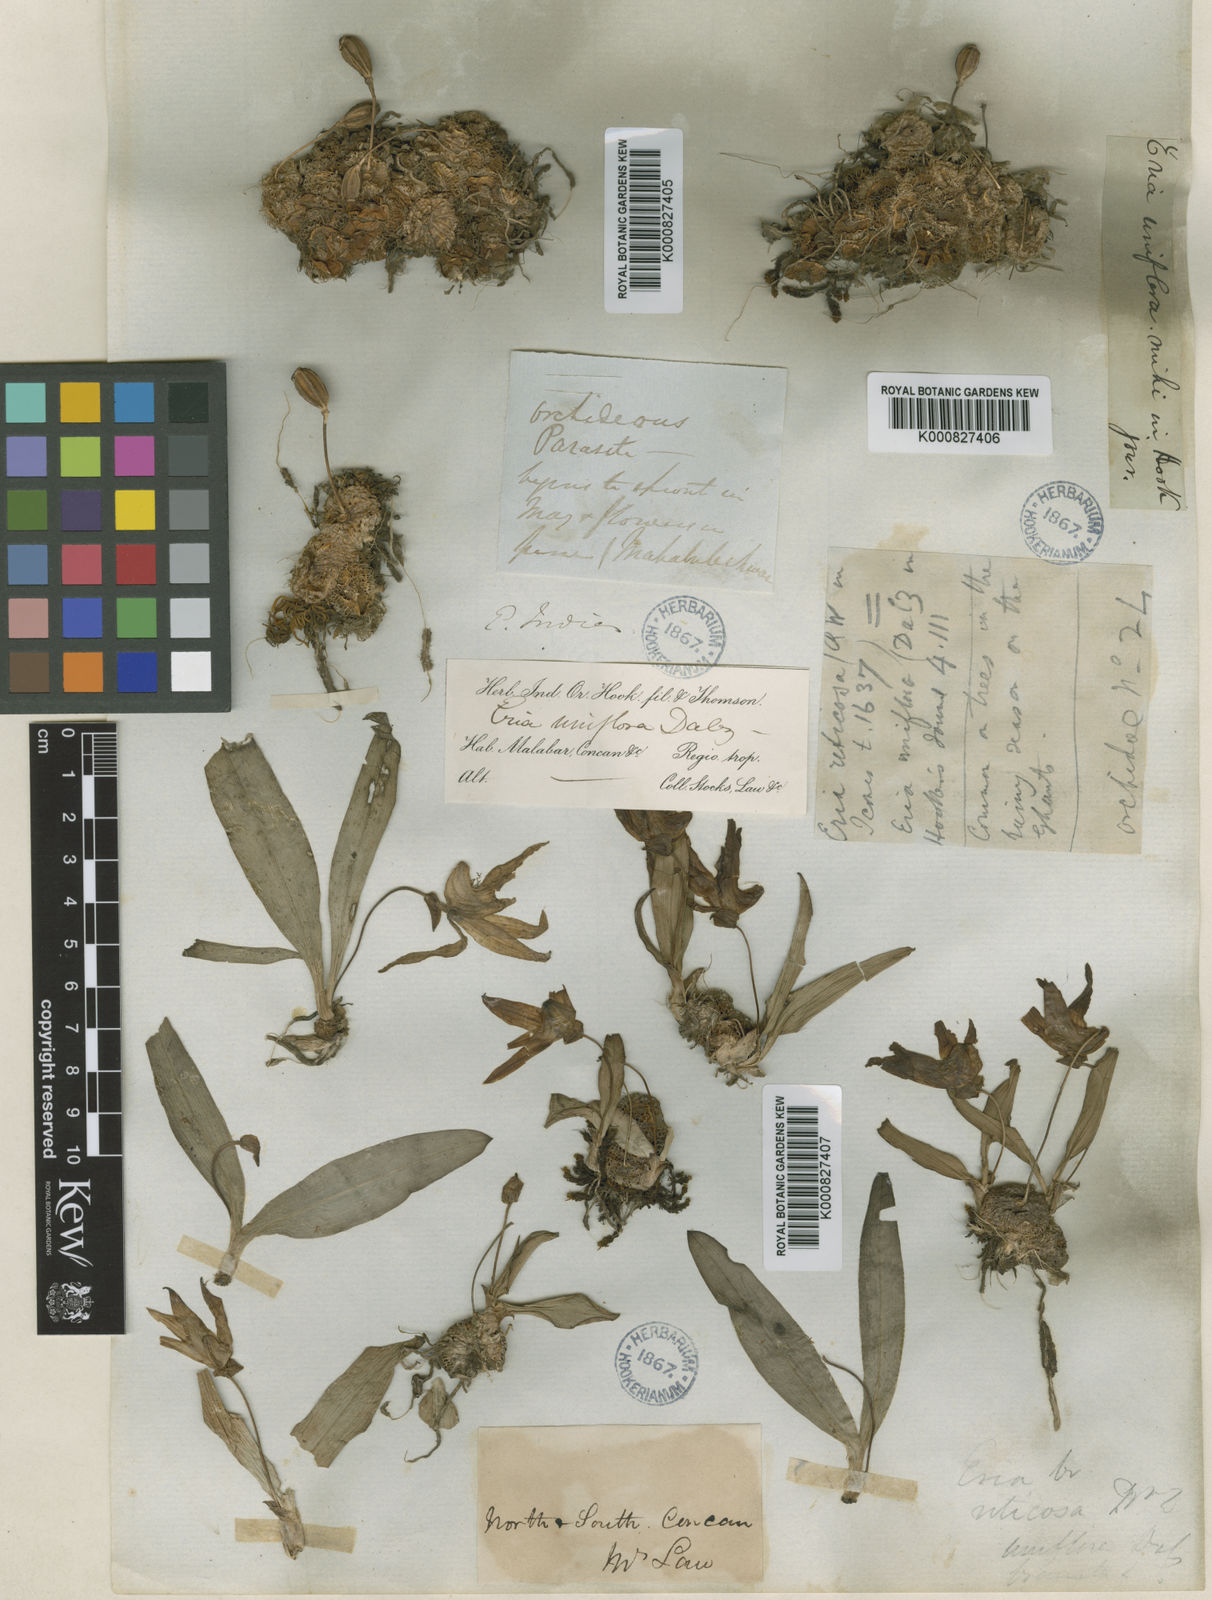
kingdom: Plantae
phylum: Tracheophyta
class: Liliopsida
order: Asparagales
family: Orchidaceae
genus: Porpax
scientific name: Porpax braccata
